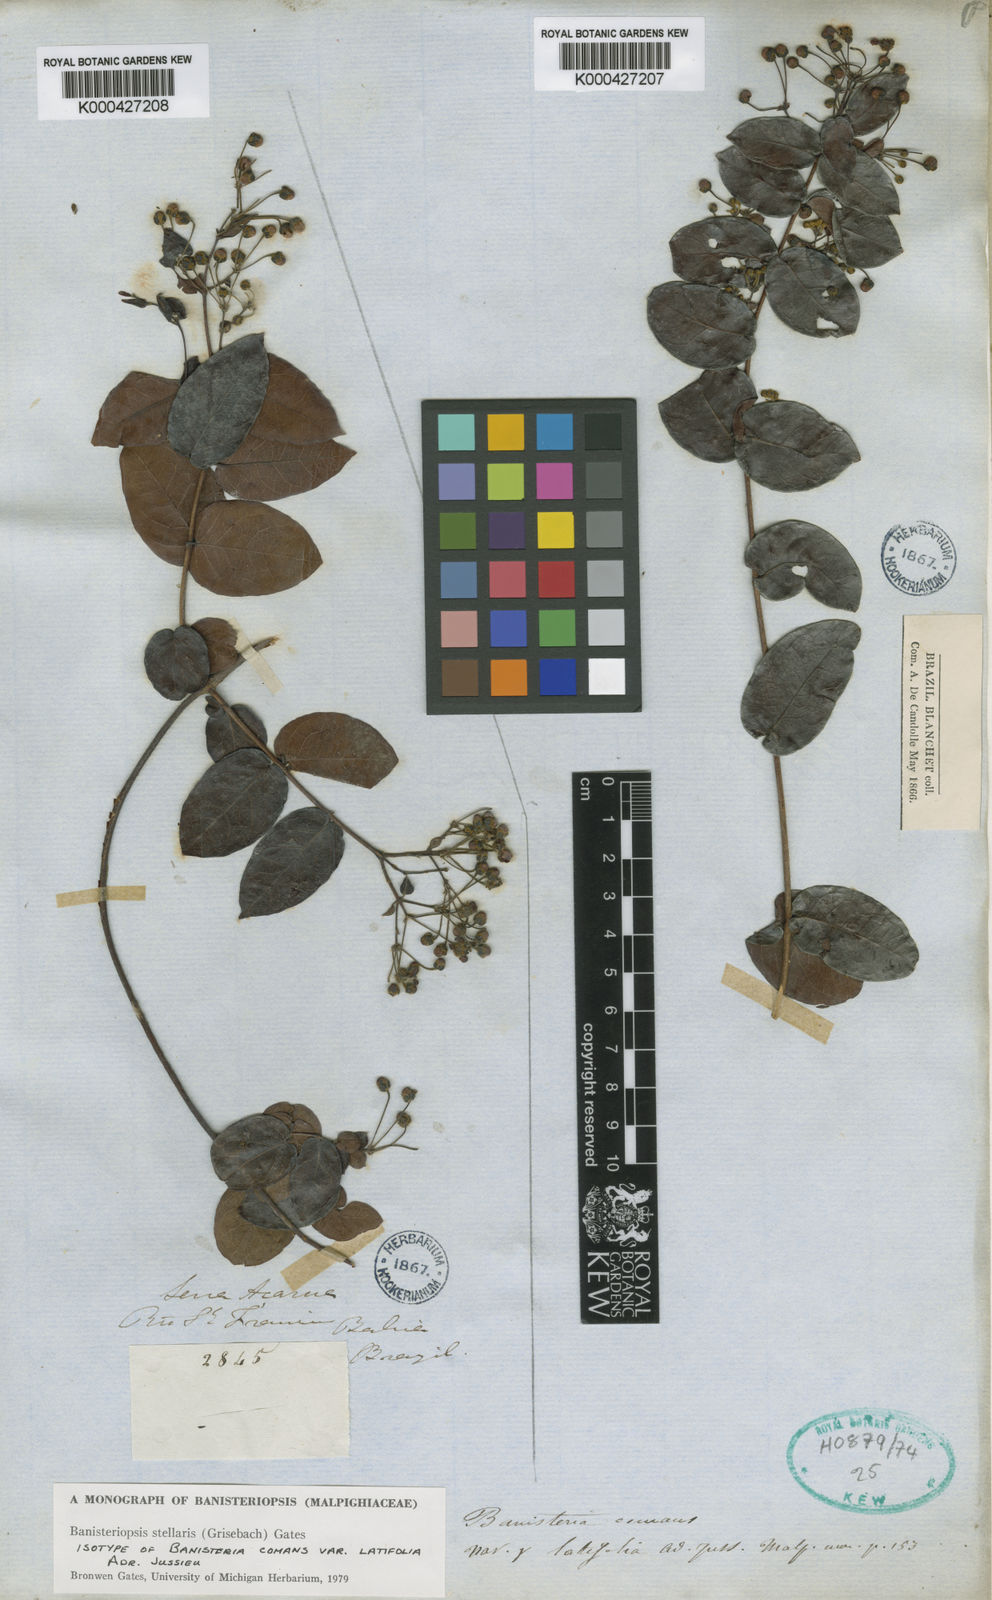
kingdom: Plantae
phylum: Tracheophyta
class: Magnoliopsida
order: Malpighiales
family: Malpighiaceae
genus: Banisteriopsis
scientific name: Banisteriopsis stellaris
